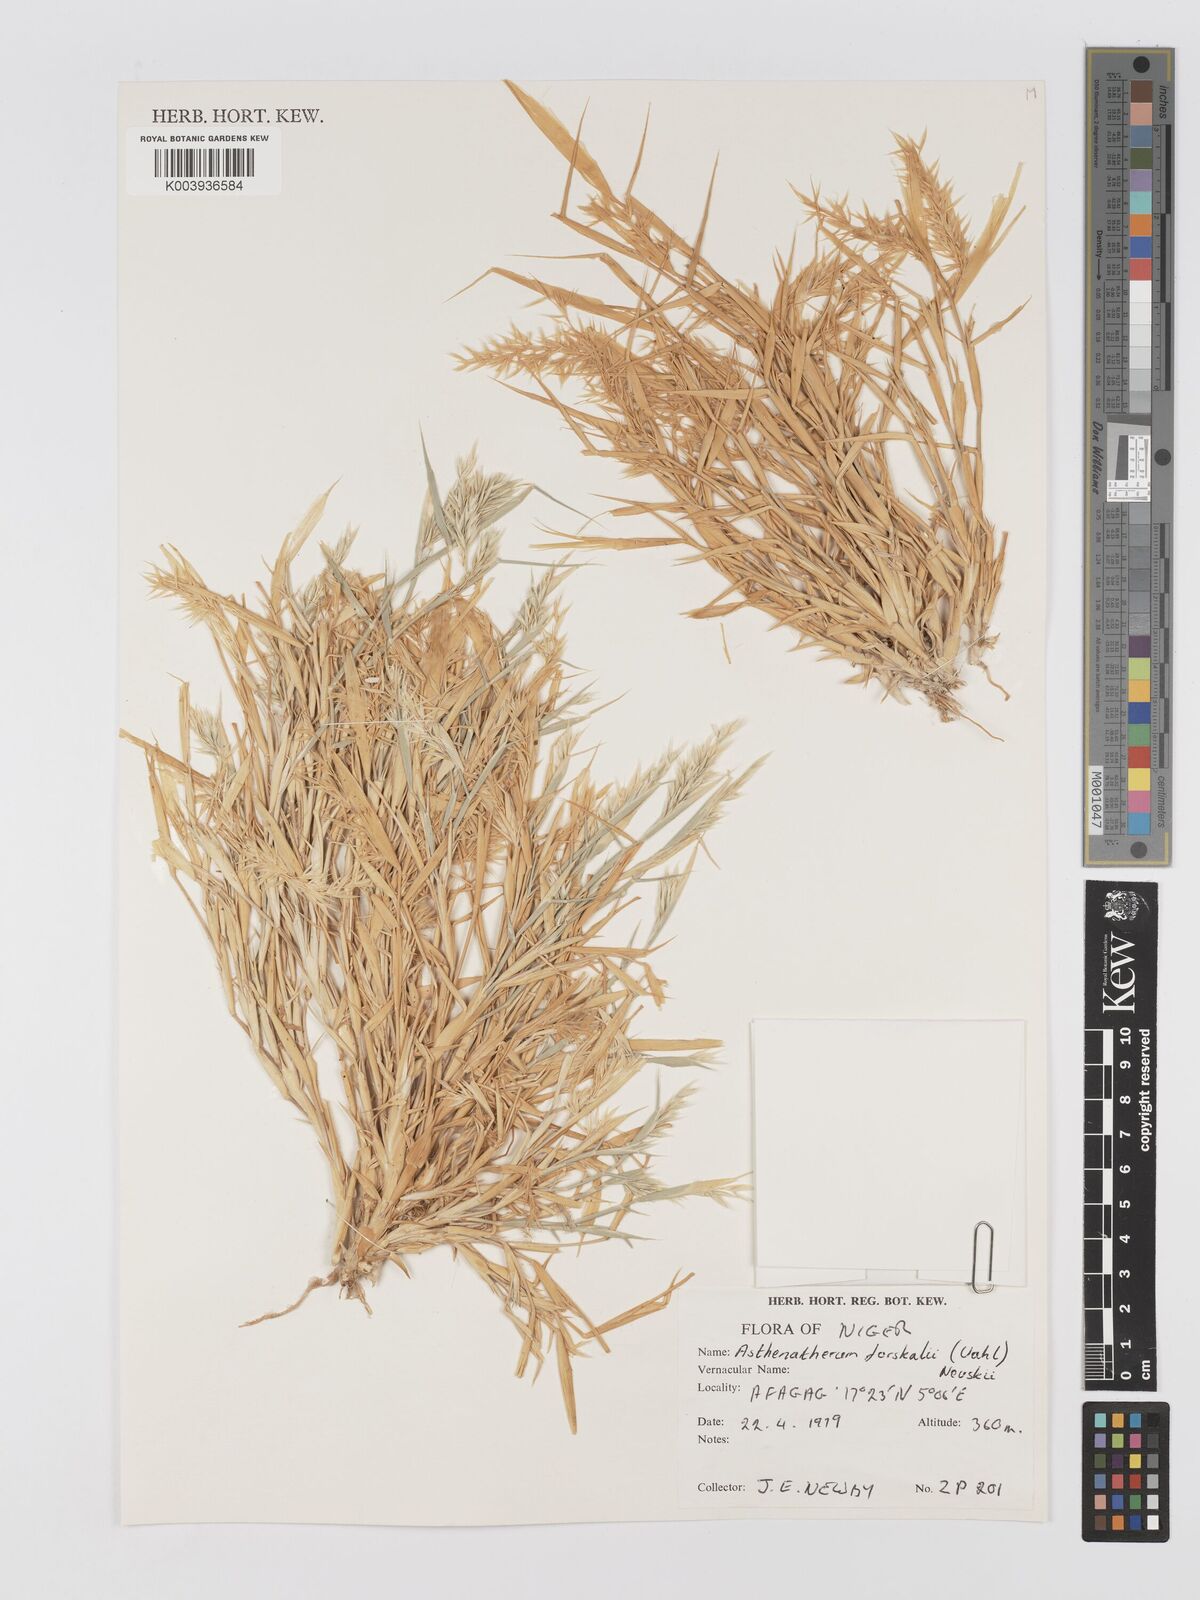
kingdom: Plantae
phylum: Tracheophyta
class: Liliopsida
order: Poales
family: Poaceae
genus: Centropodia
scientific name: Centropodia forskaolii
